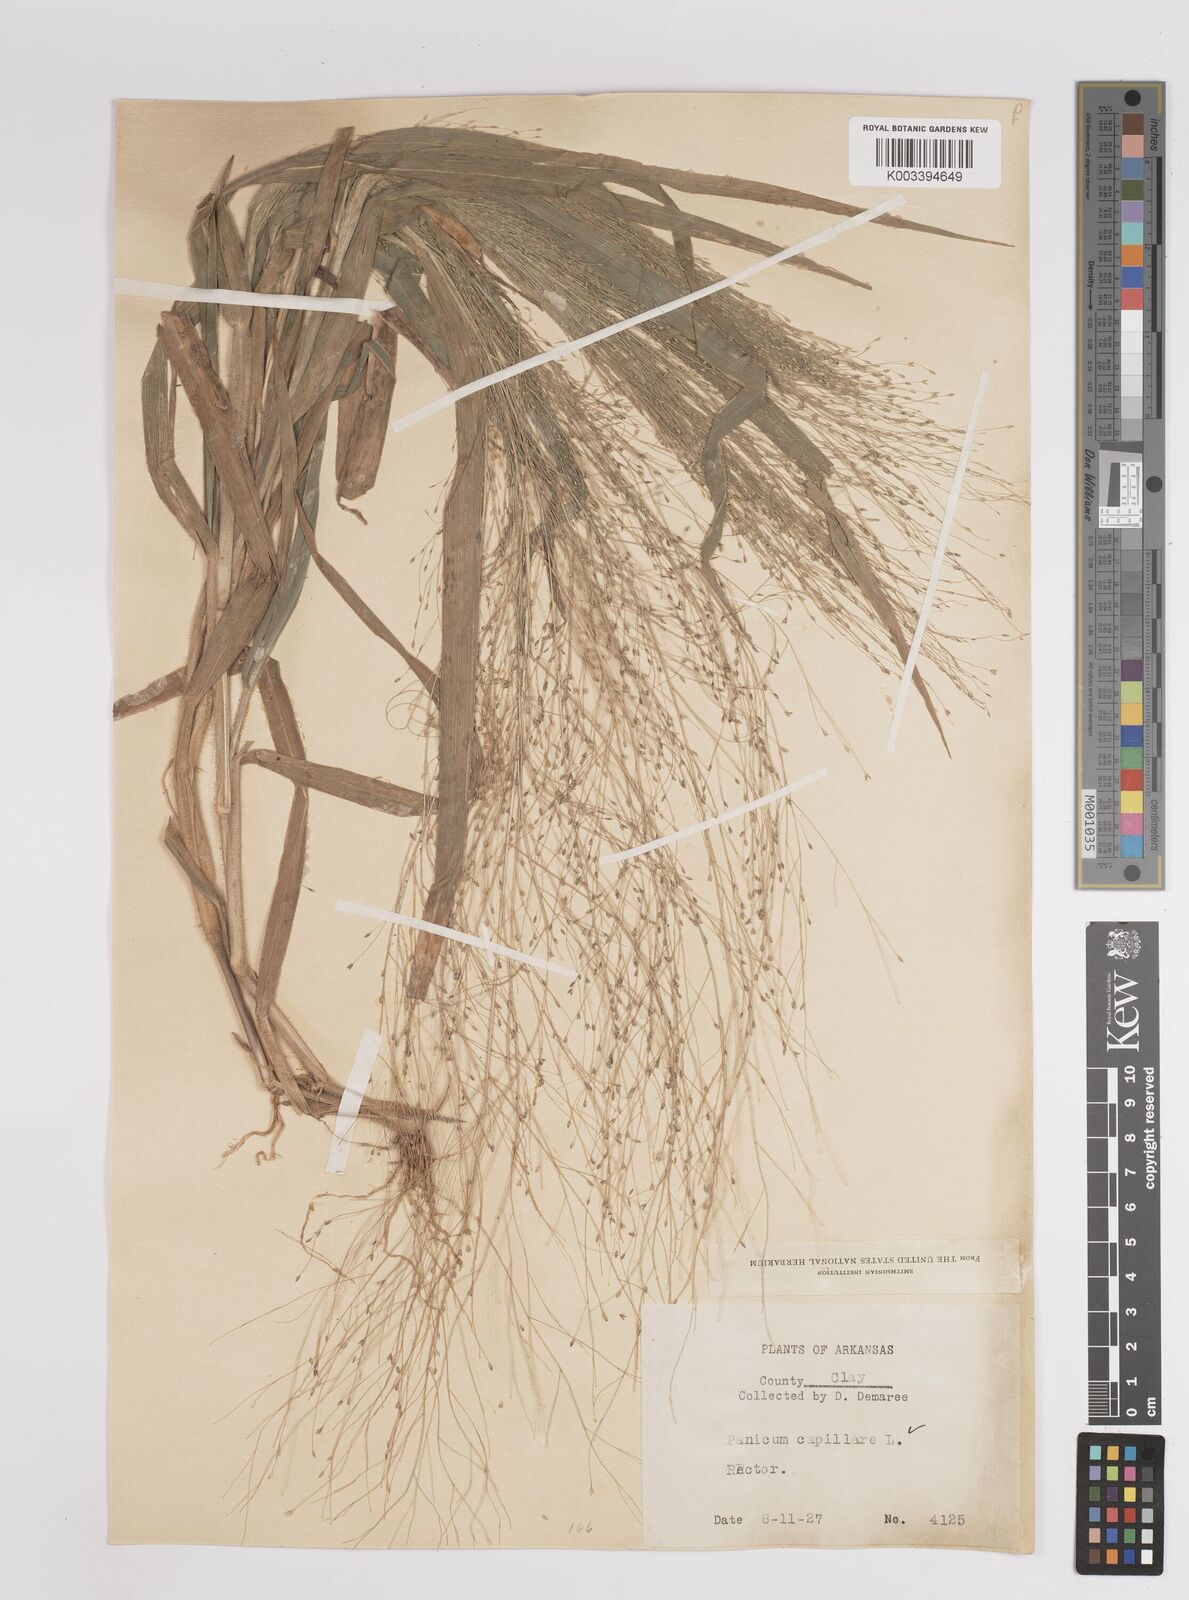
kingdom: Plantae
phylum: Tracheophyta
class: Liliopsida
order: Poales
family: Poaceae
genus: Panicum
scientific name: Panicum capillare
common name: Witch-grass
